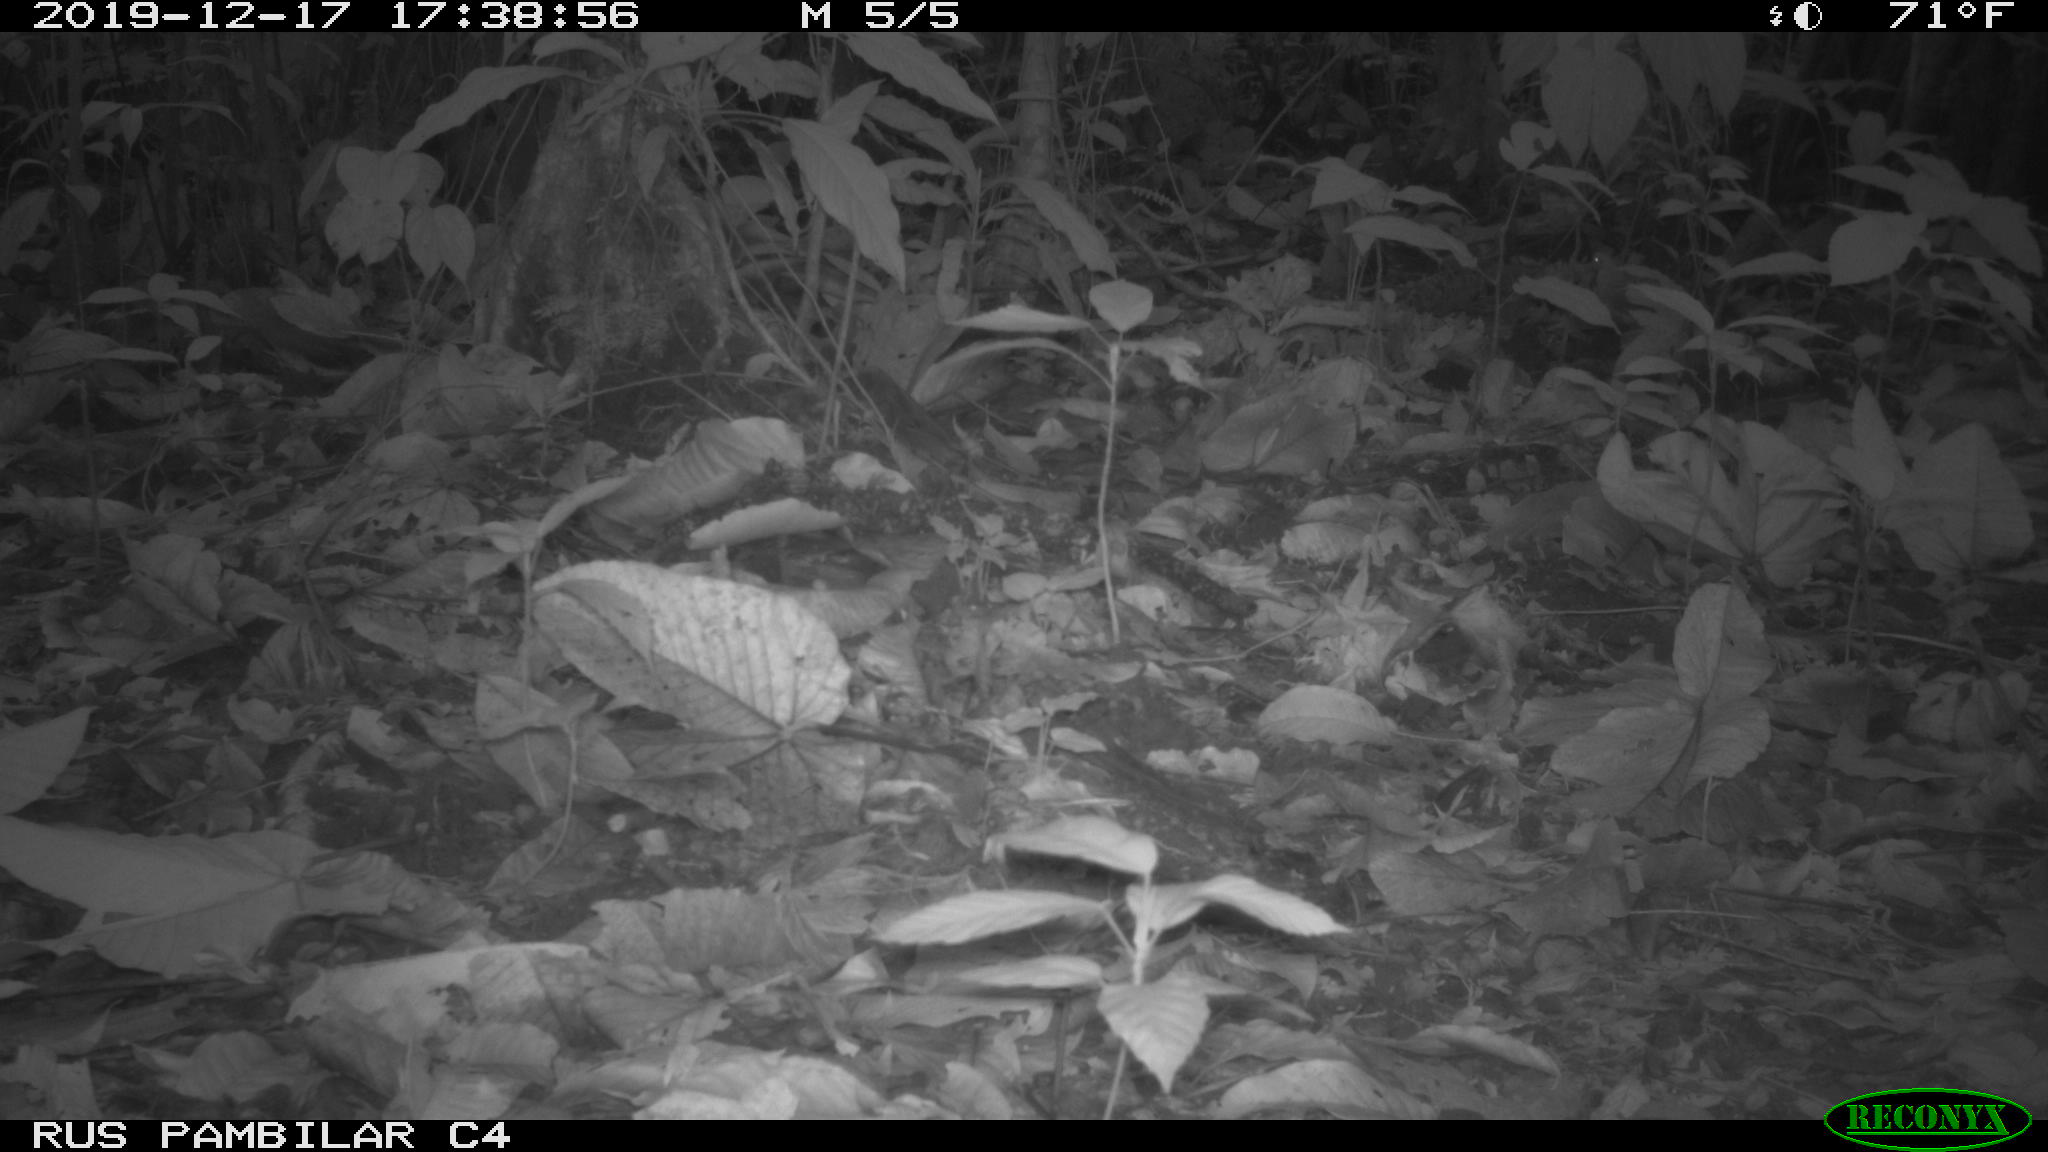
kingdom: Animalia
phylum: Chordata
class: Aves
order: Columbiformes
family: Columbidae
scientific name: Columbidae
